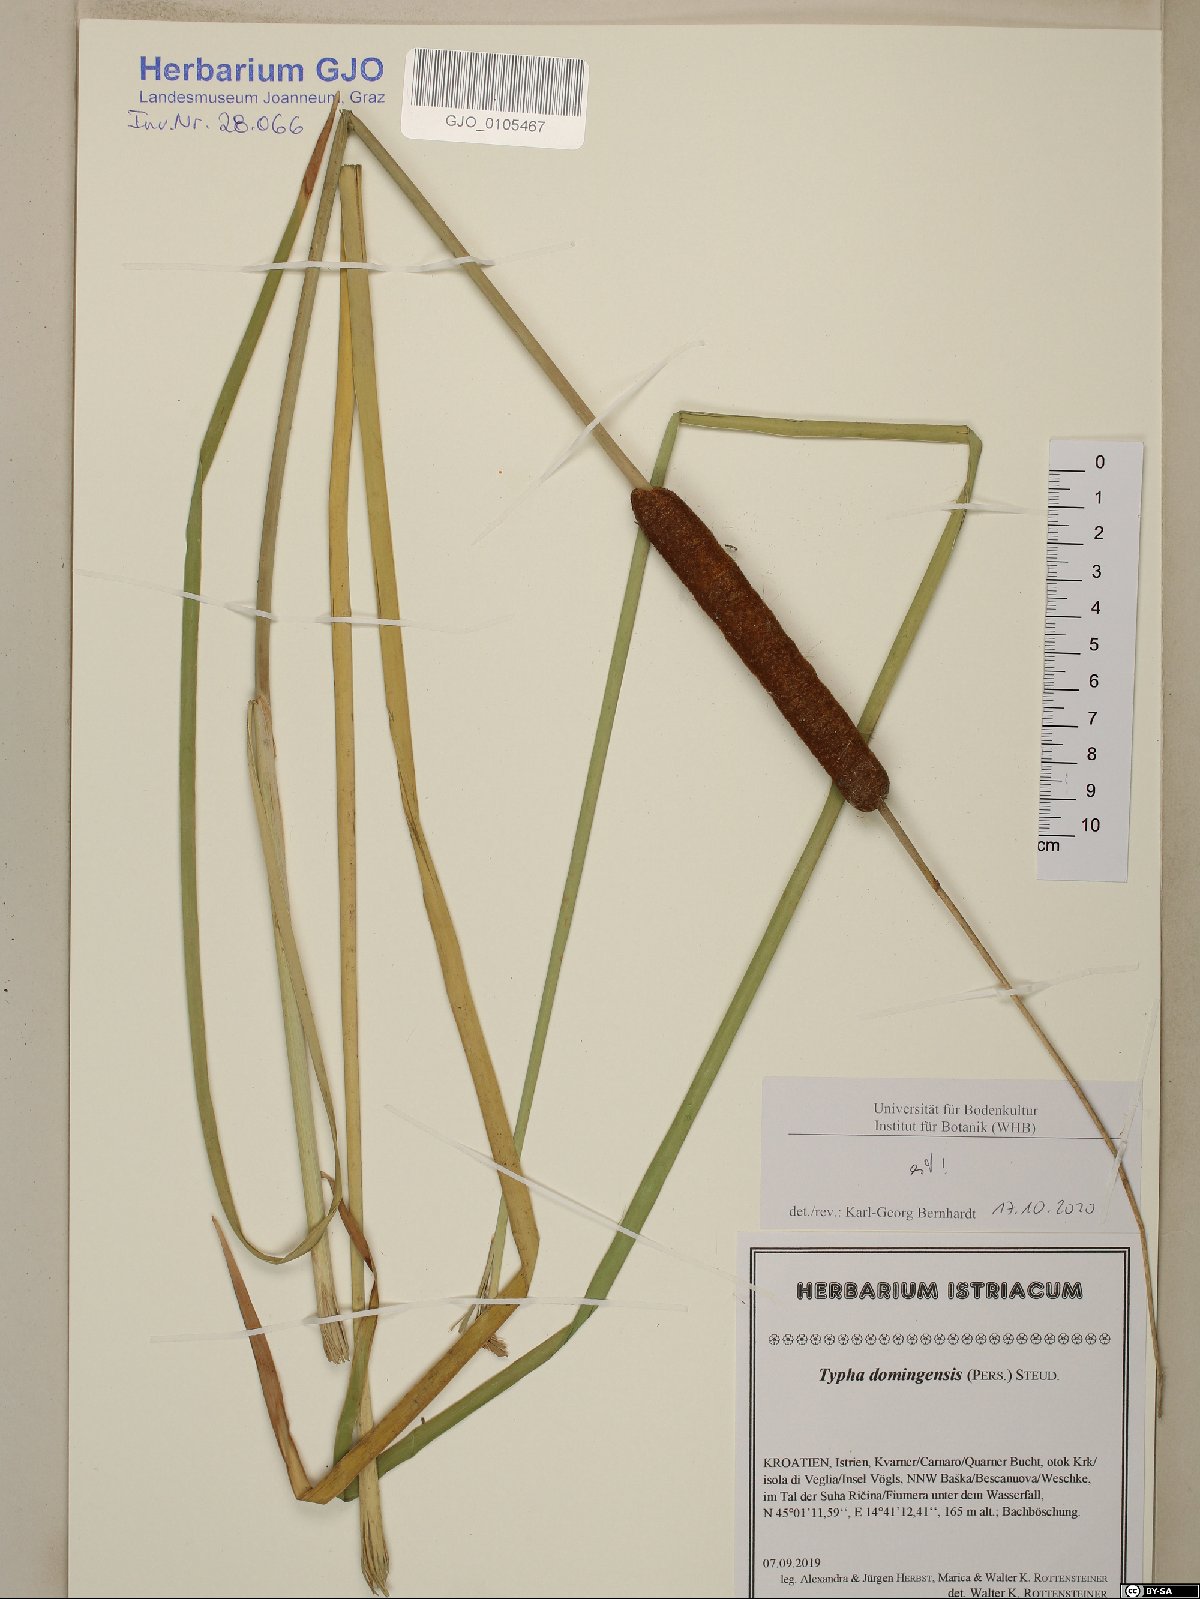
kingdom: Plantae
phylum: Tracheophyta
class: Liliopsida
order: Poales
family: Typhaceae
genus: Typha
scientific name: Typha domingensis
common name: Southern cattail
